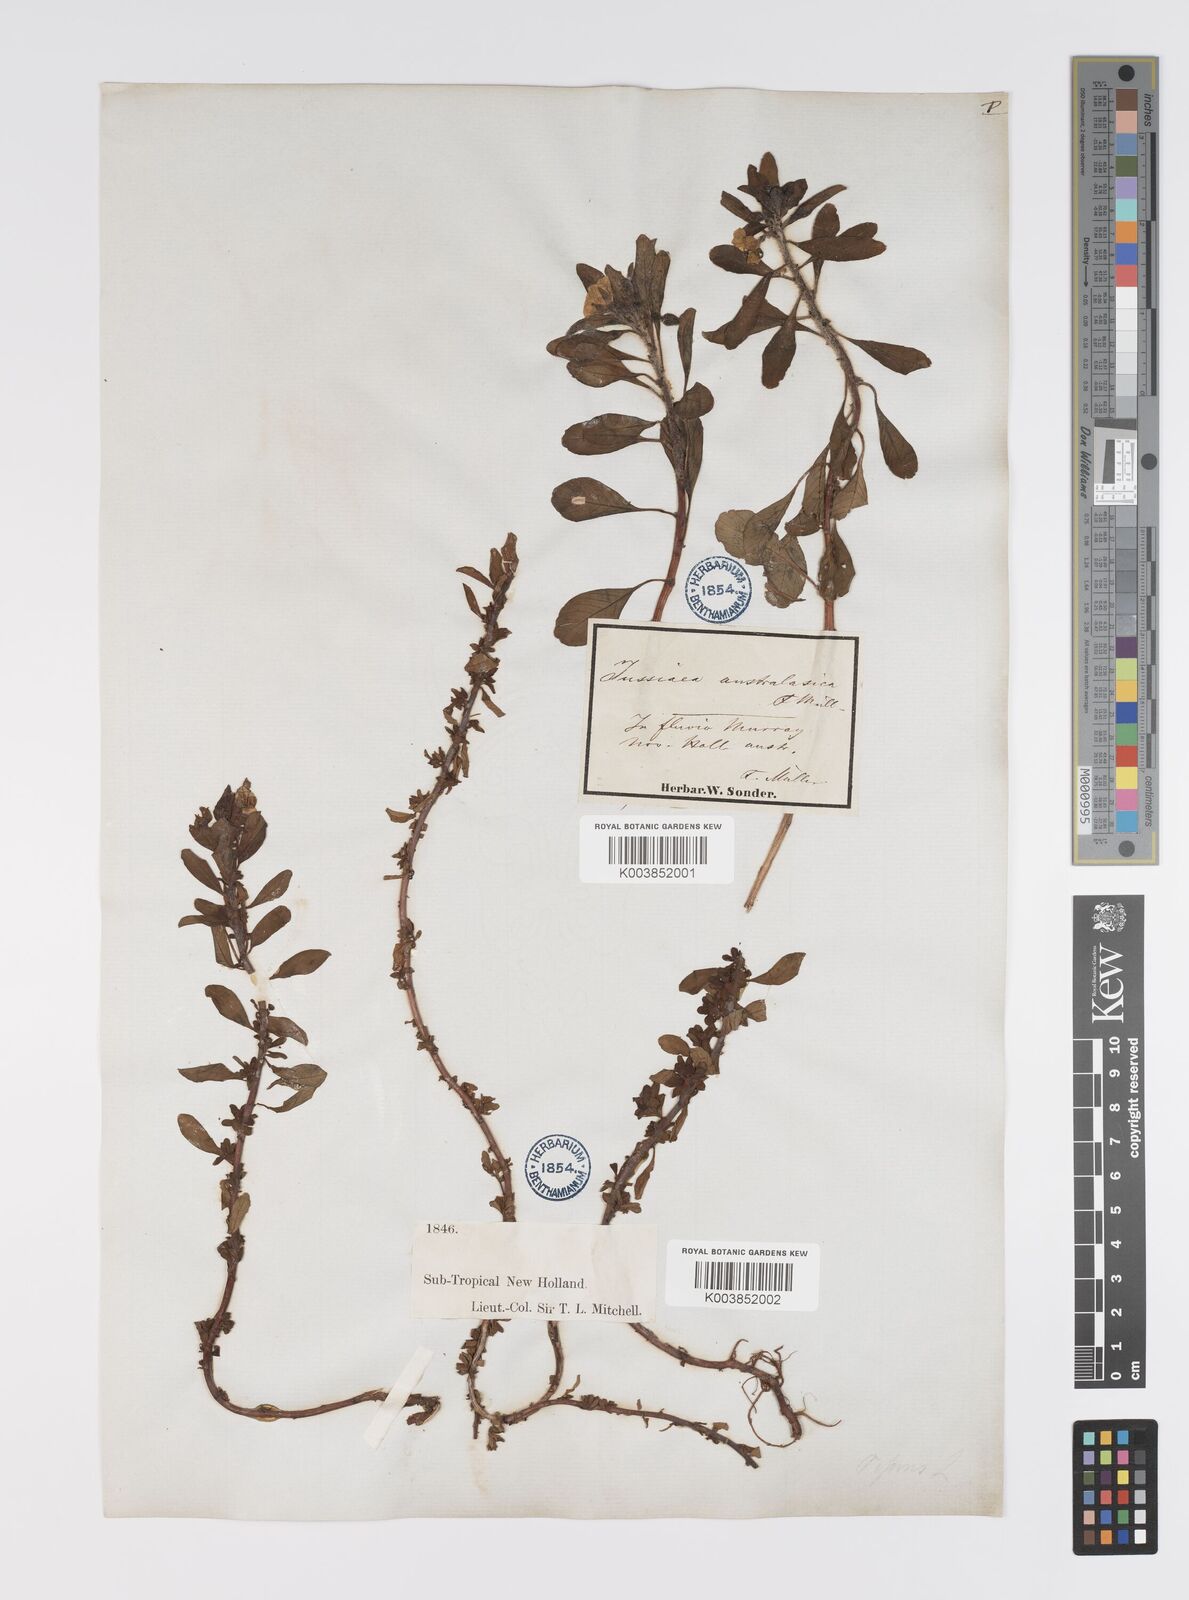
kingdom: Plantae
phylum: Tracheophyta
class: Magnoliopsida
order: Myrtales
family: Onagraceae
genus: Ludwigia
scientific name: Ludwigia peploides
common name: Floating primrose-willow
